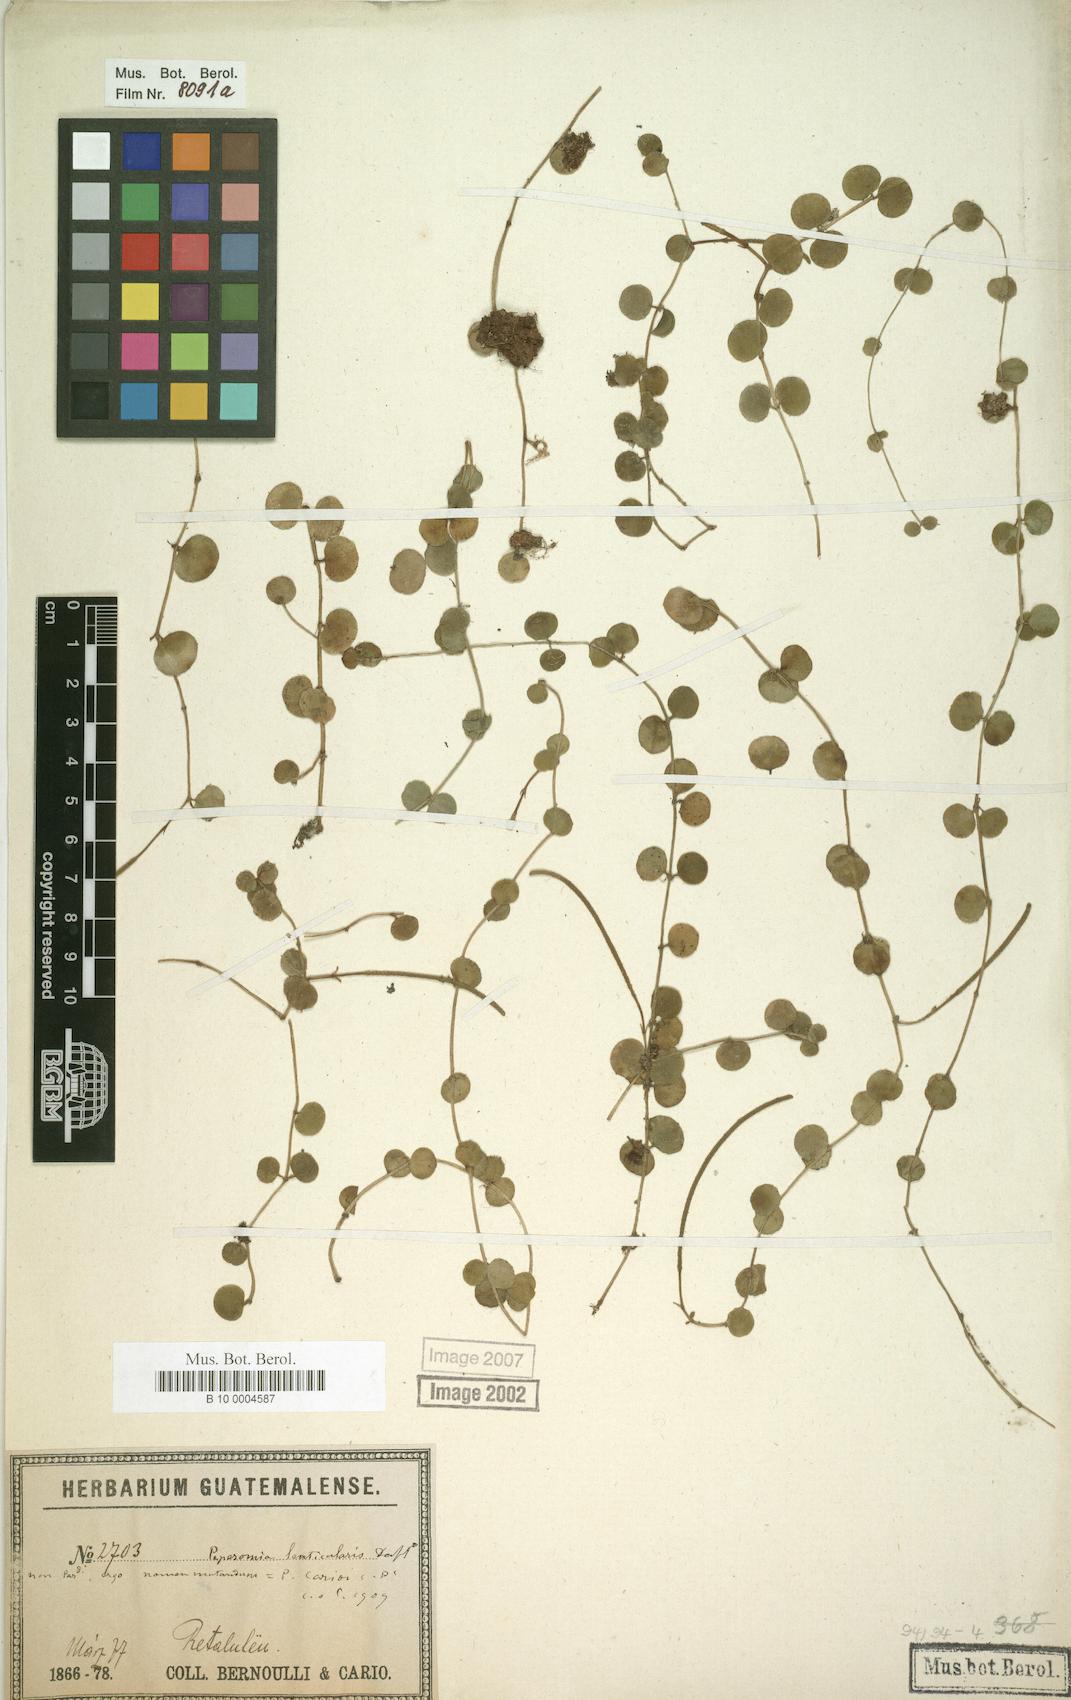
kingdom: Plantae
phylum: Tracheophyta
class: Magnoliopsida
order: Piperales
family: Piperaceae
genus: Peperomia
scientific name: Peperomia circinnata
